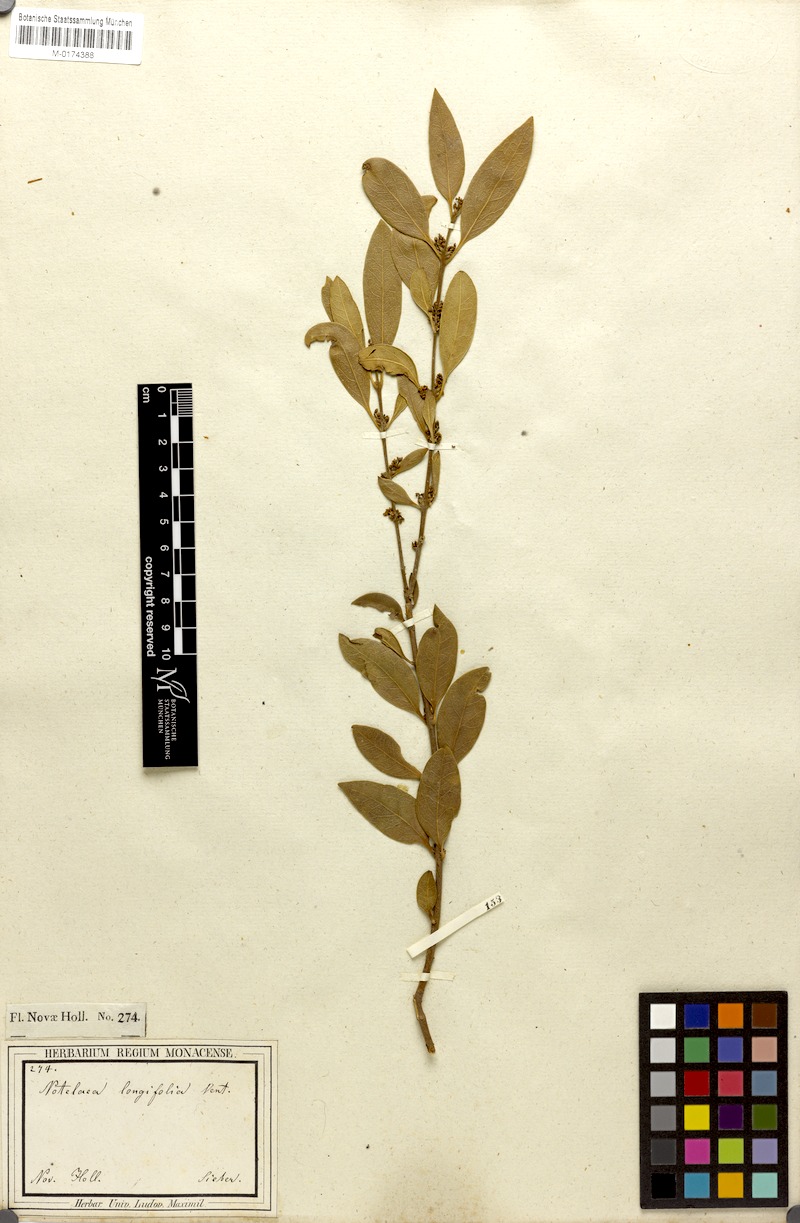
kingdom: Plantae
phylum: Tracheophyta
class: Magnoliopsida
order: Lamiales
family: Oleaceae
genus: Notelaea
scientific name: Notelaea longifolia
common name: Large mock olive
